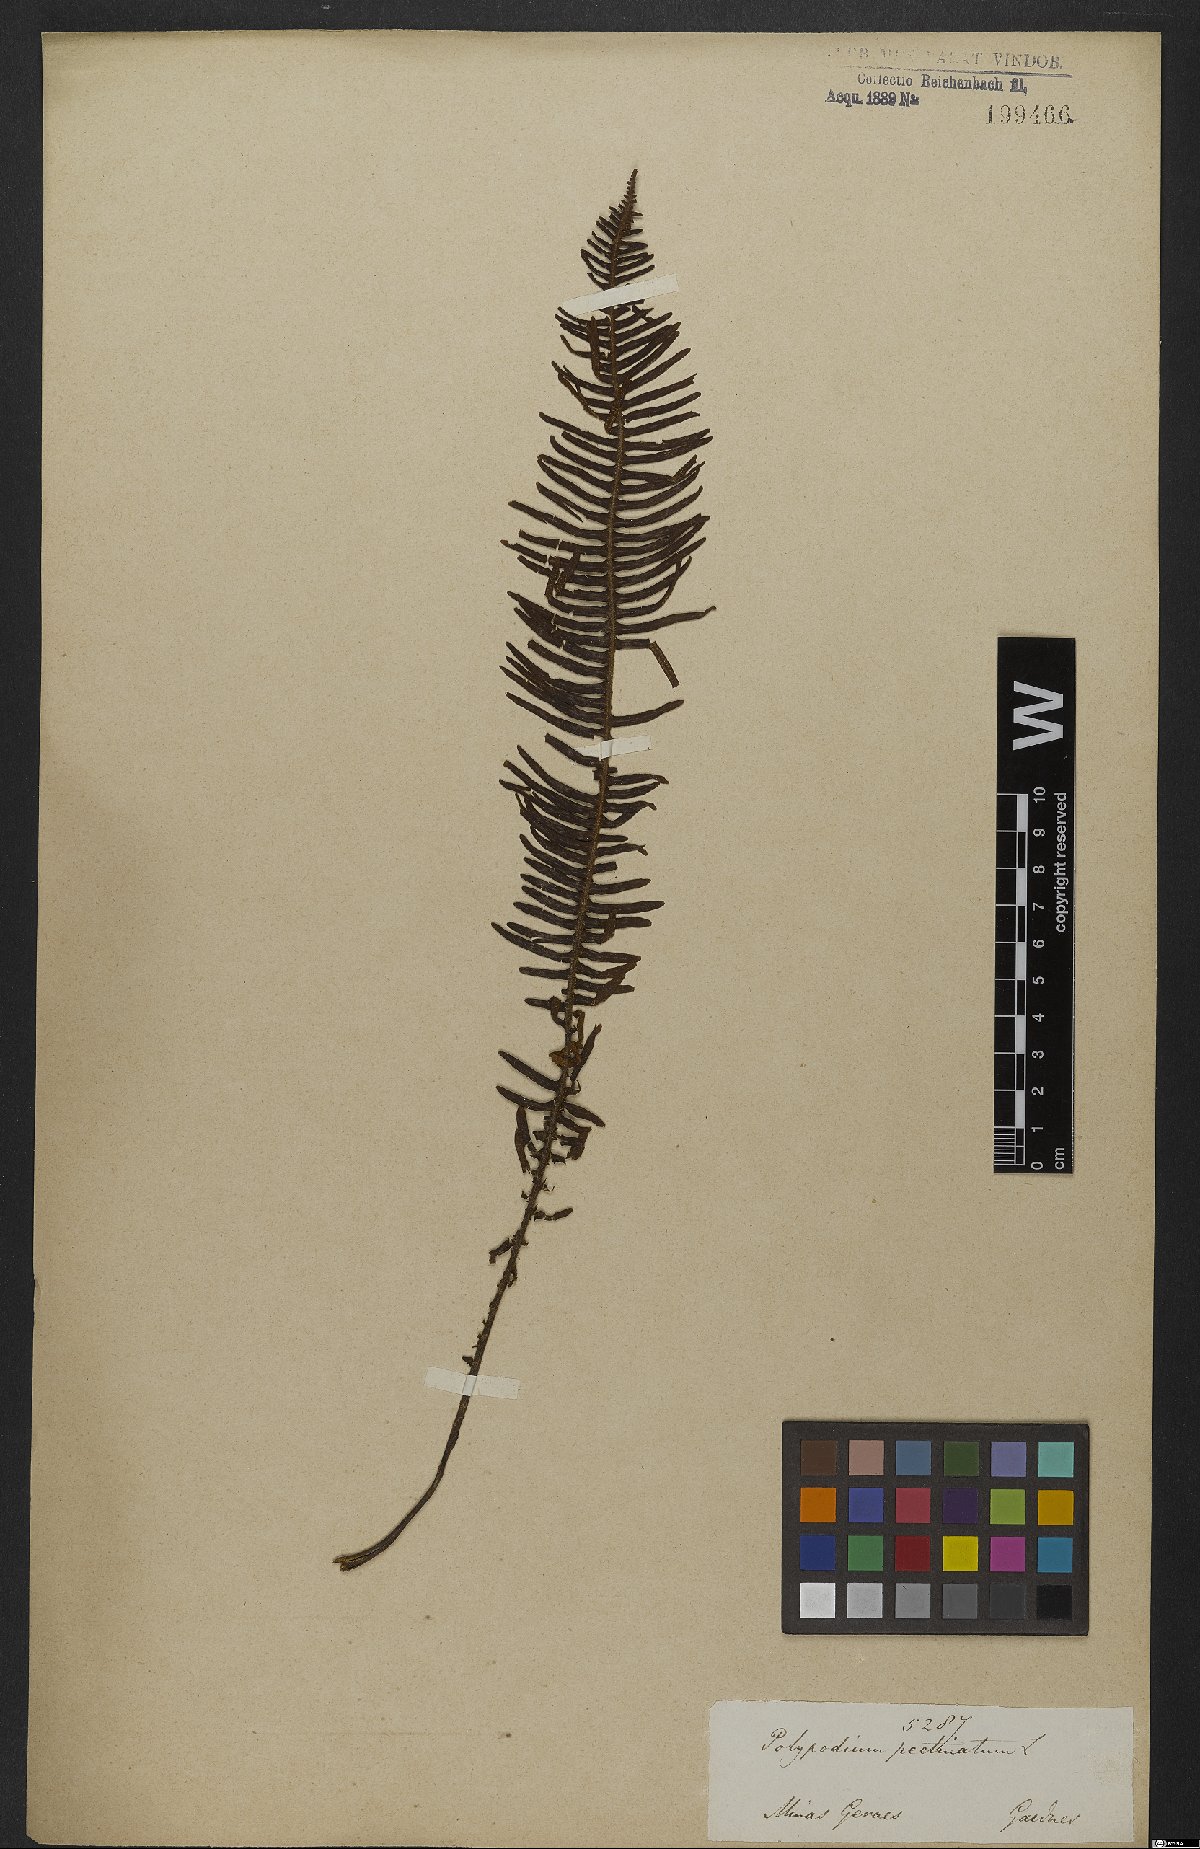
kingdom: Plantae
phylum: Tracheophyta
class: Polypodiopsida
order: Polypodiales
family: Polypodiaceae
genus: Pecluma
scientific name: Pecluma pectinata
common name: Msasa fern
